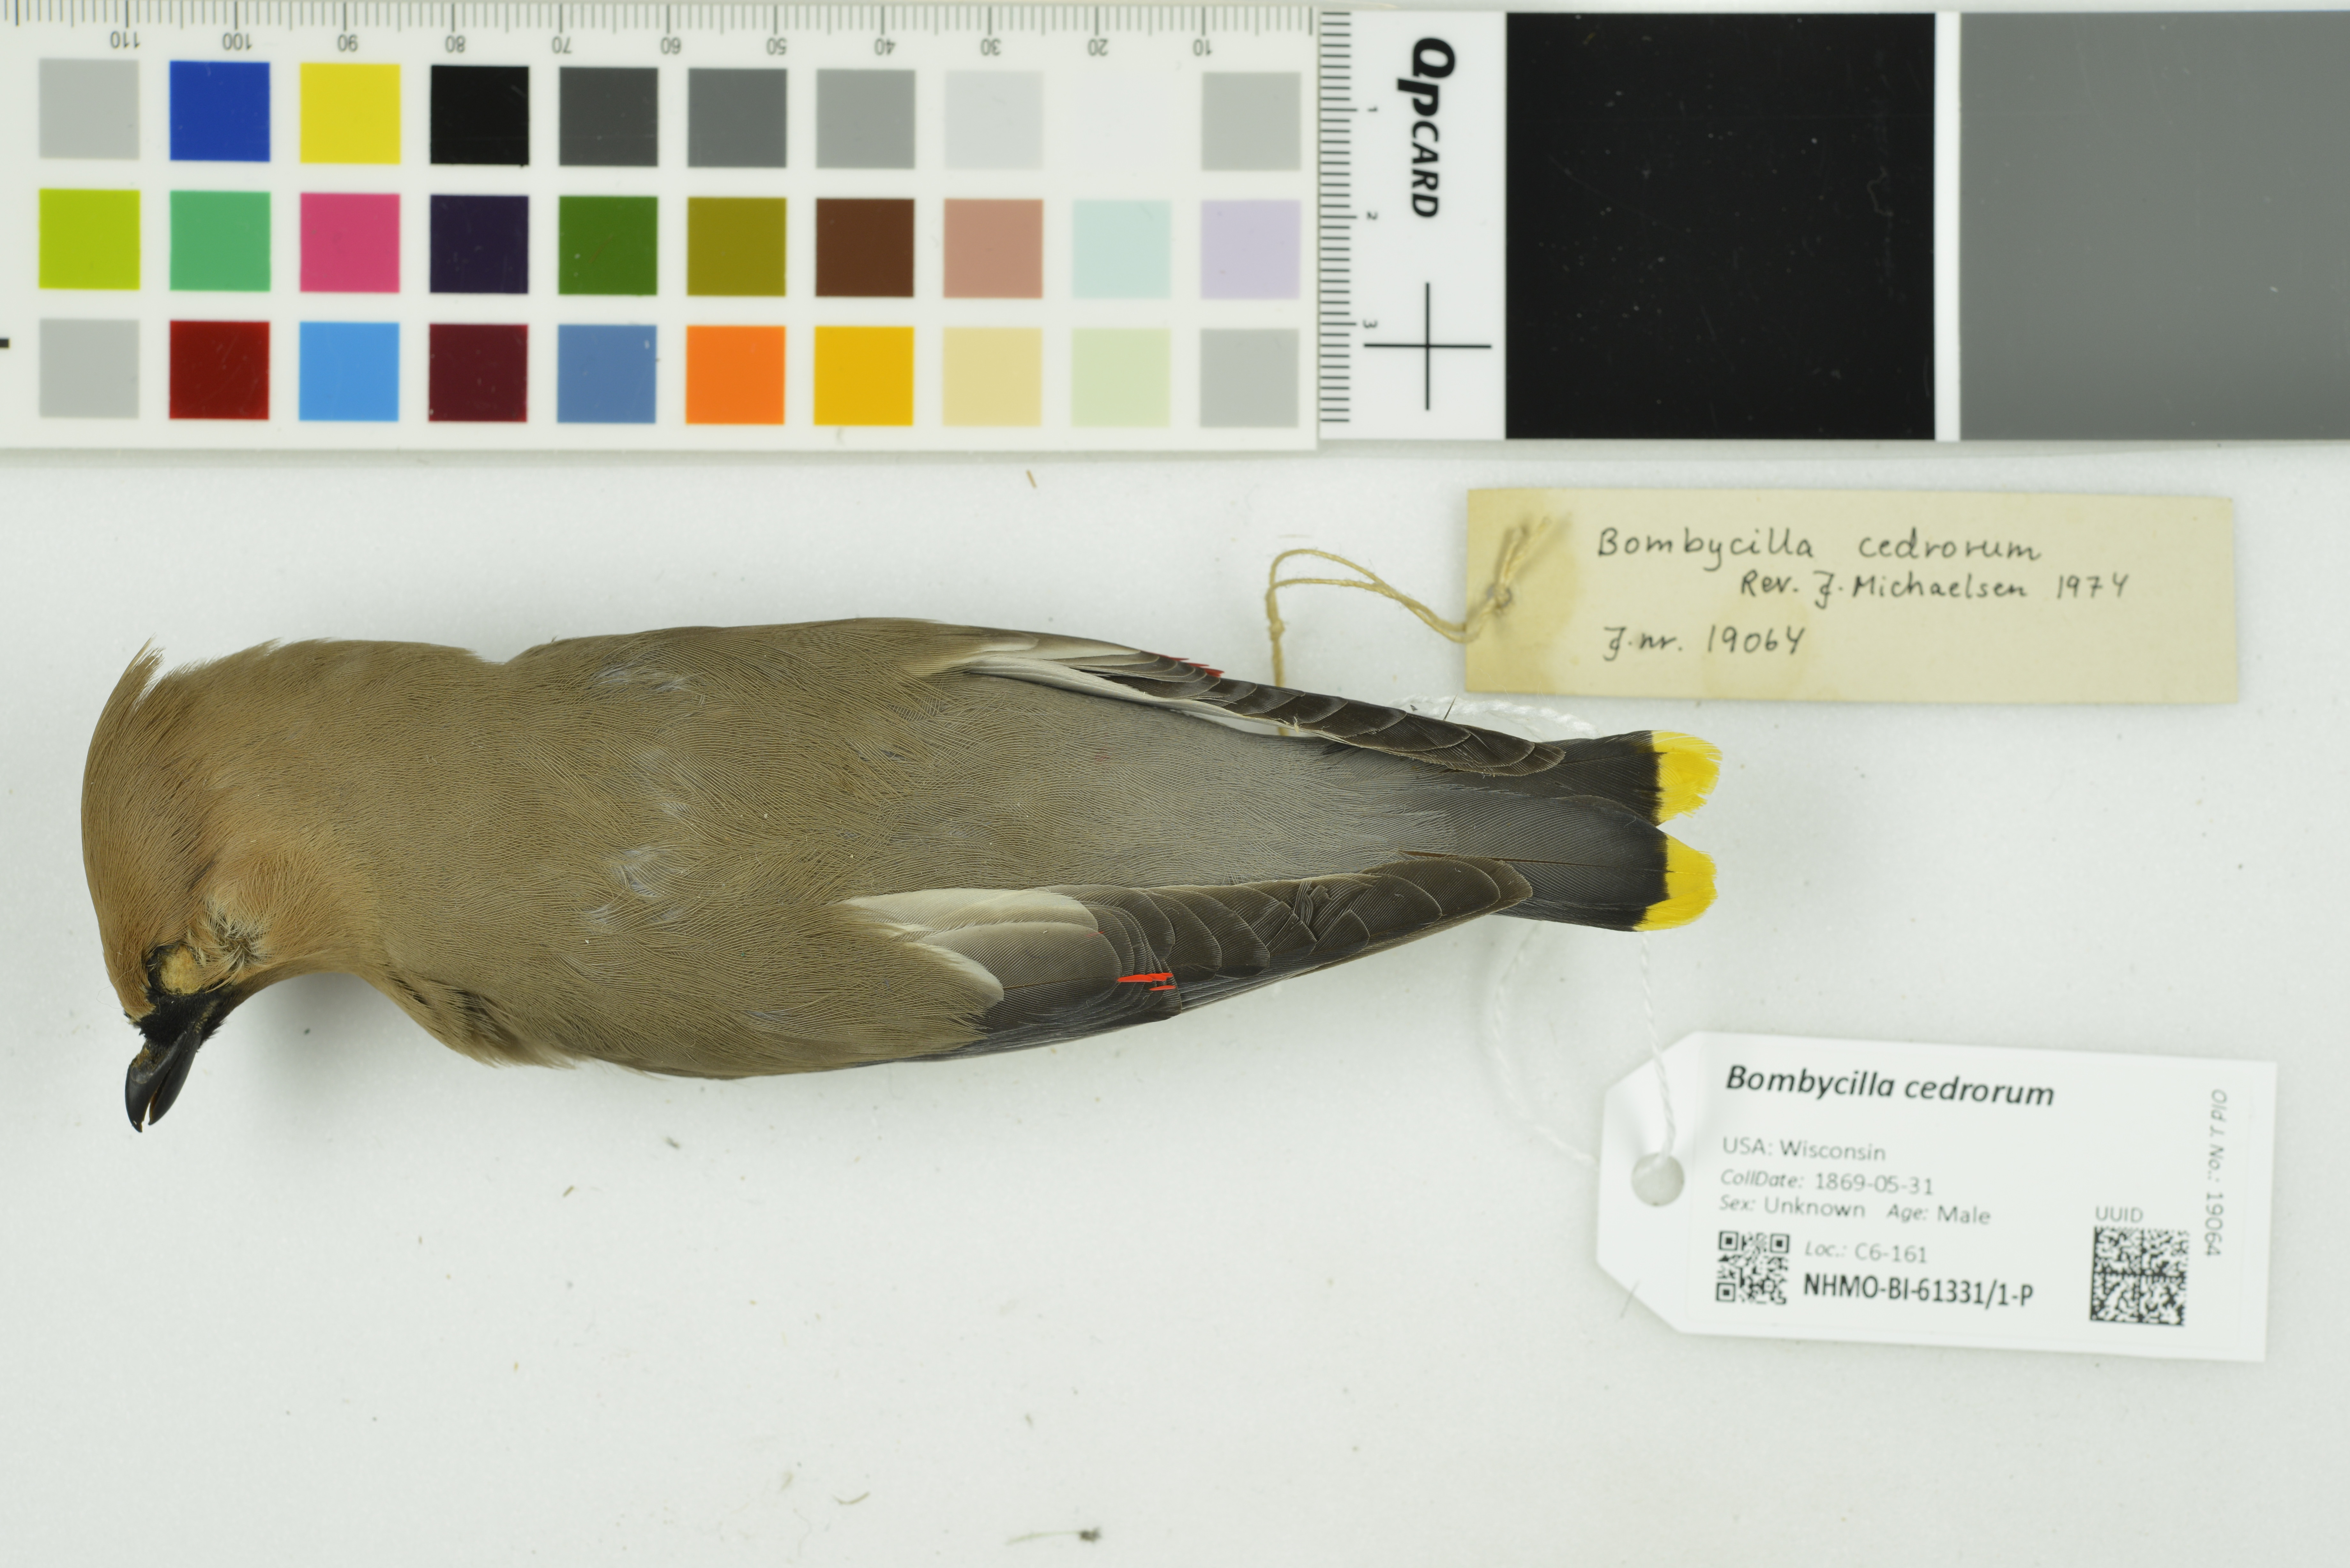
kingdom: Animalia
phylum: Chordata
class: Aves
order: Passeriformes
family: Bombycillidae
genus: Bombycilla
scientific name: Bombycilla cedrorum
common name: Cedar waxwing
